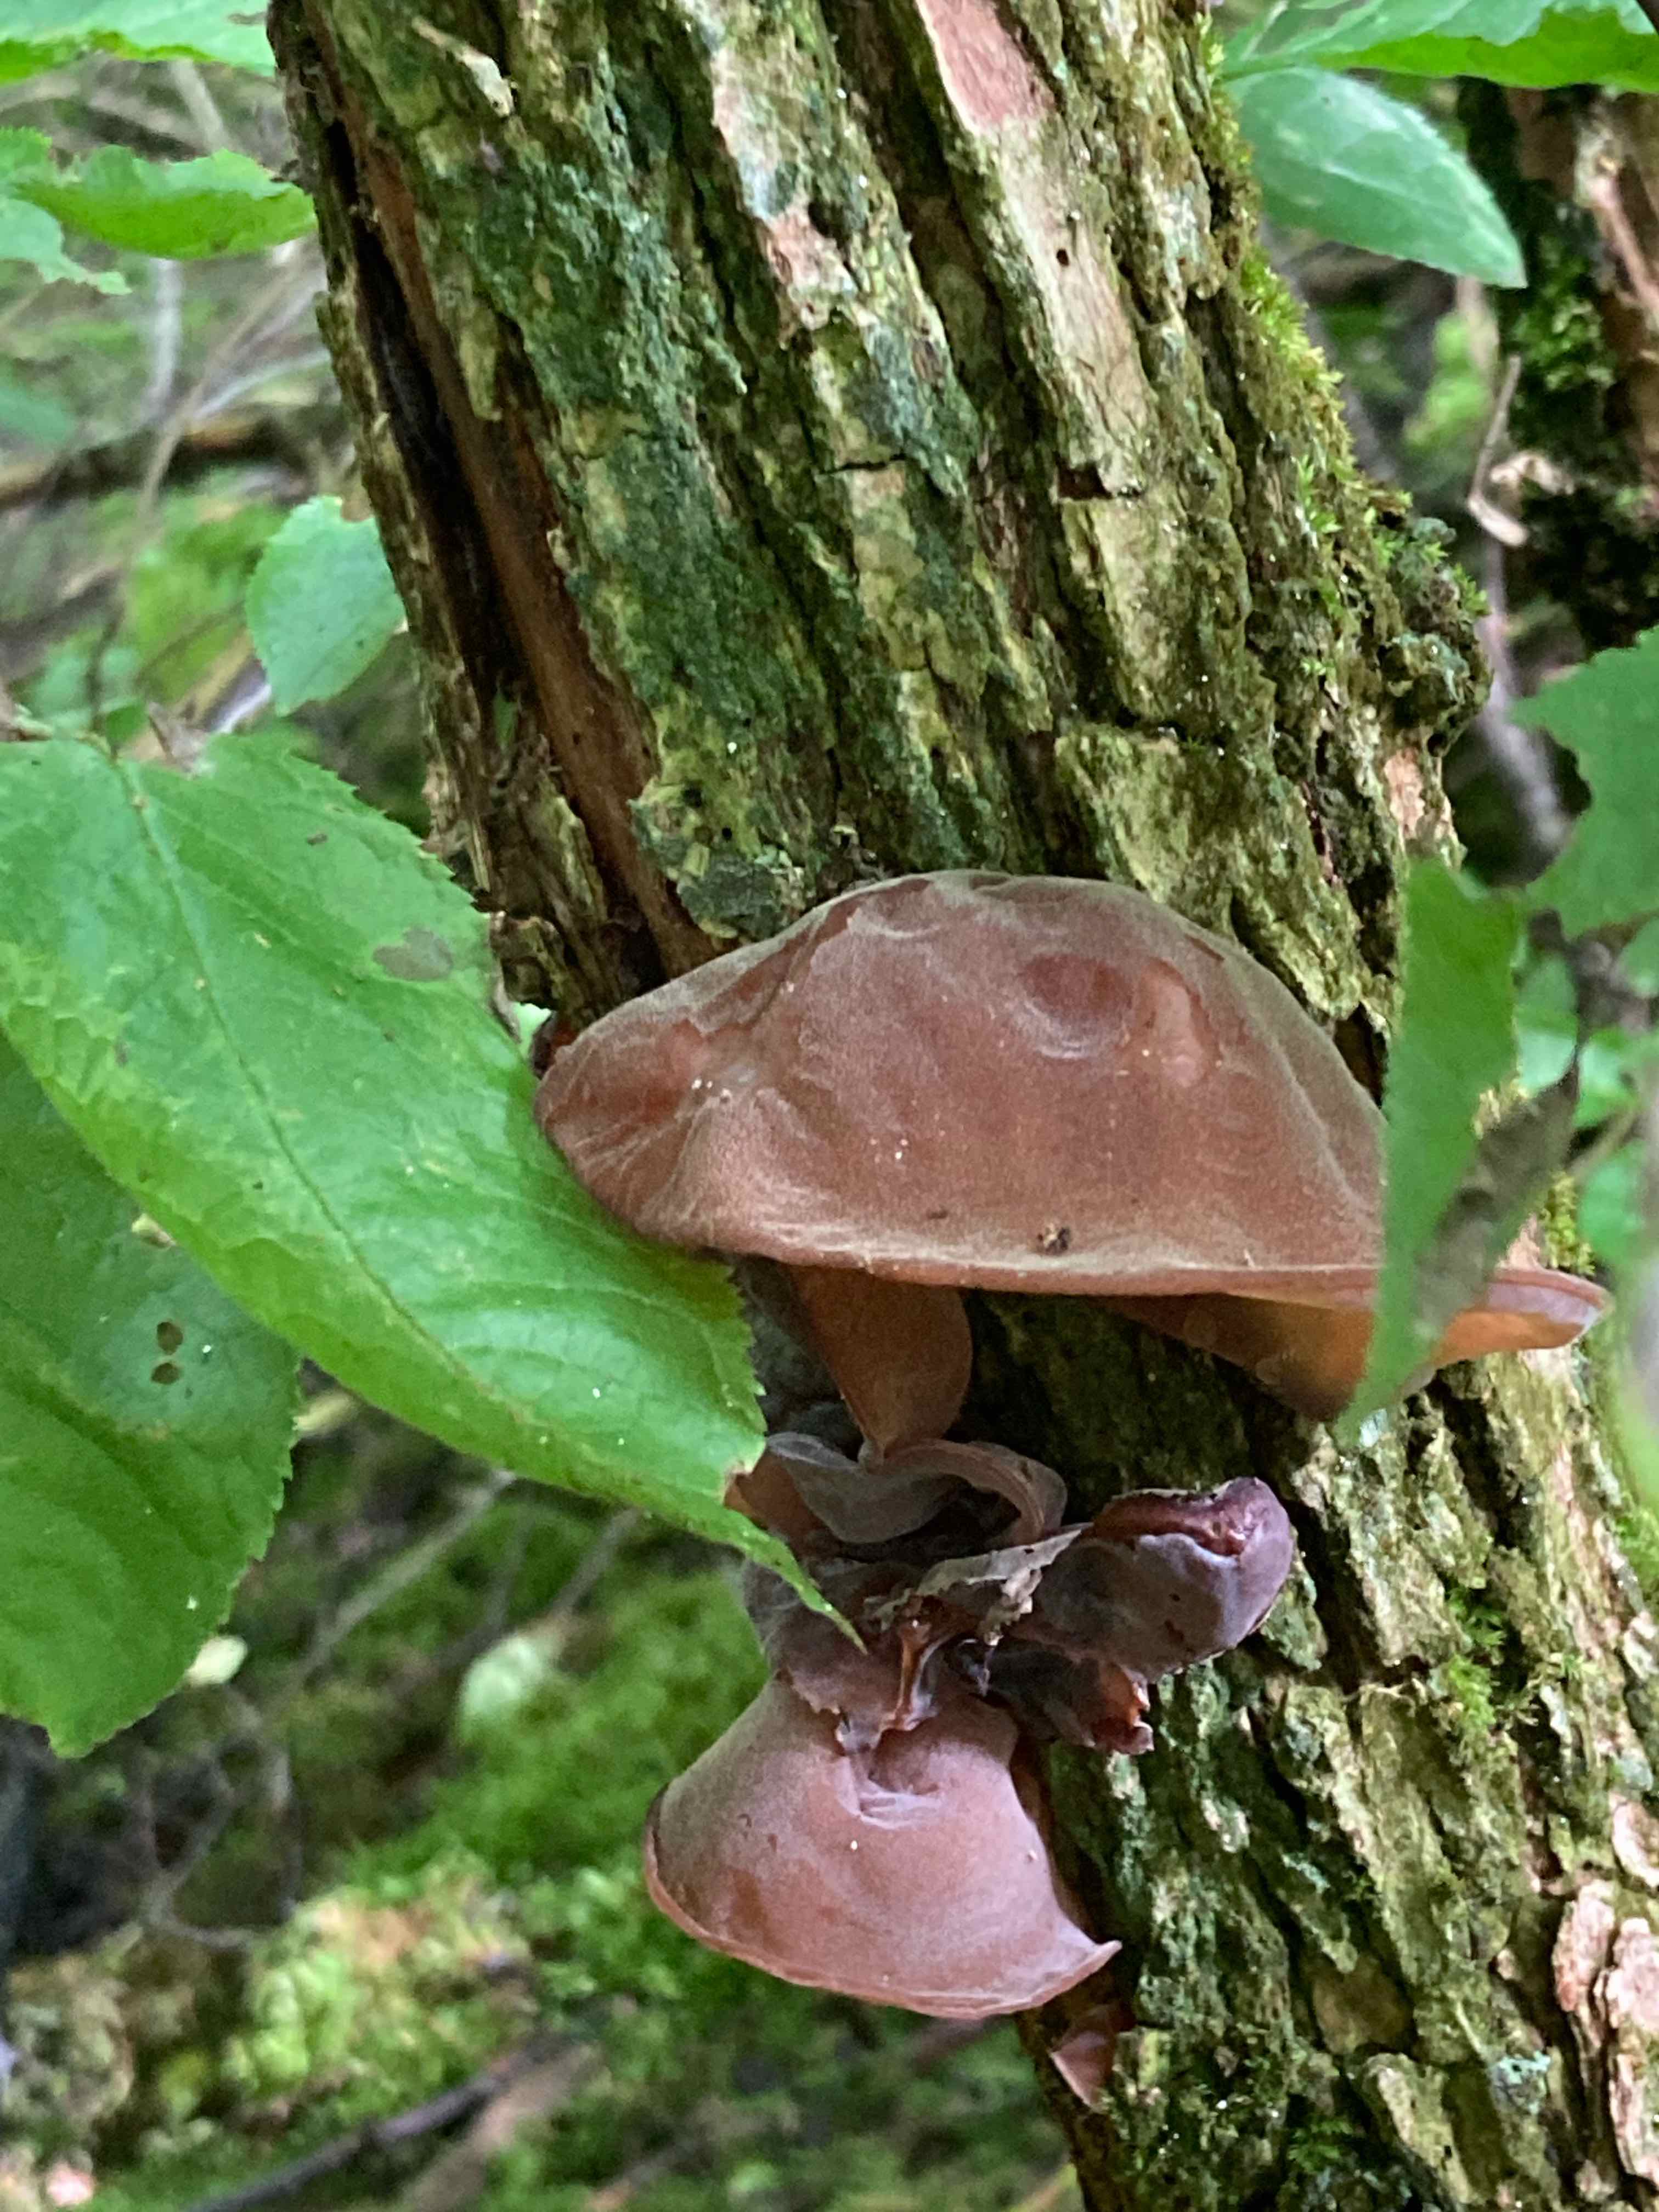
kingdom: Fungi
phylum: Basidiomycota
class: Agaricomycetes
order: Auriculariales
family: Auriculariaceae
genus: Auricularia
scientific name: Auricularia auricula-judae
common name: almindelig judasøre
